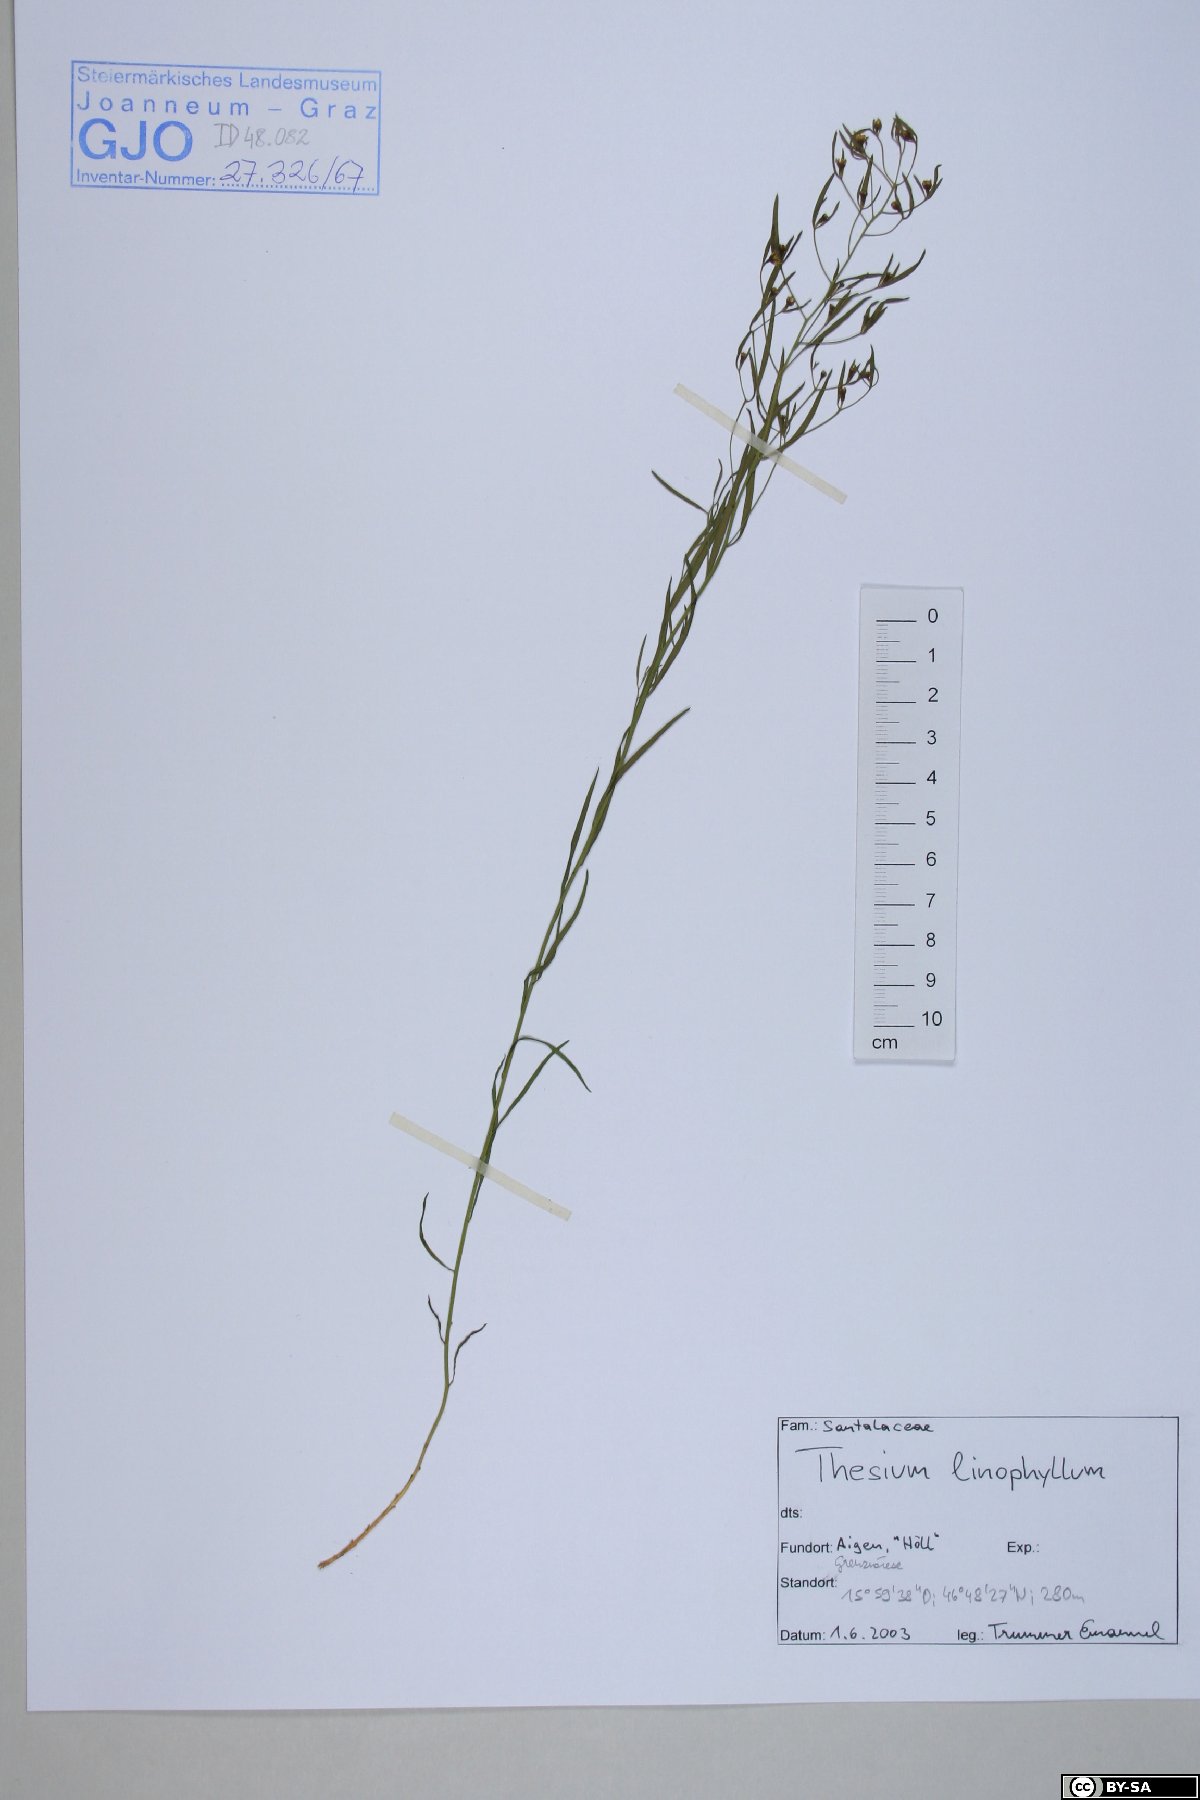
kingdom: Plantae
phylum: Tracheophyta
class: Magnoliopsida
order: Santalales
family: Thesiaceae
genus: Thesium
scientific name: Thesium linophyllon
